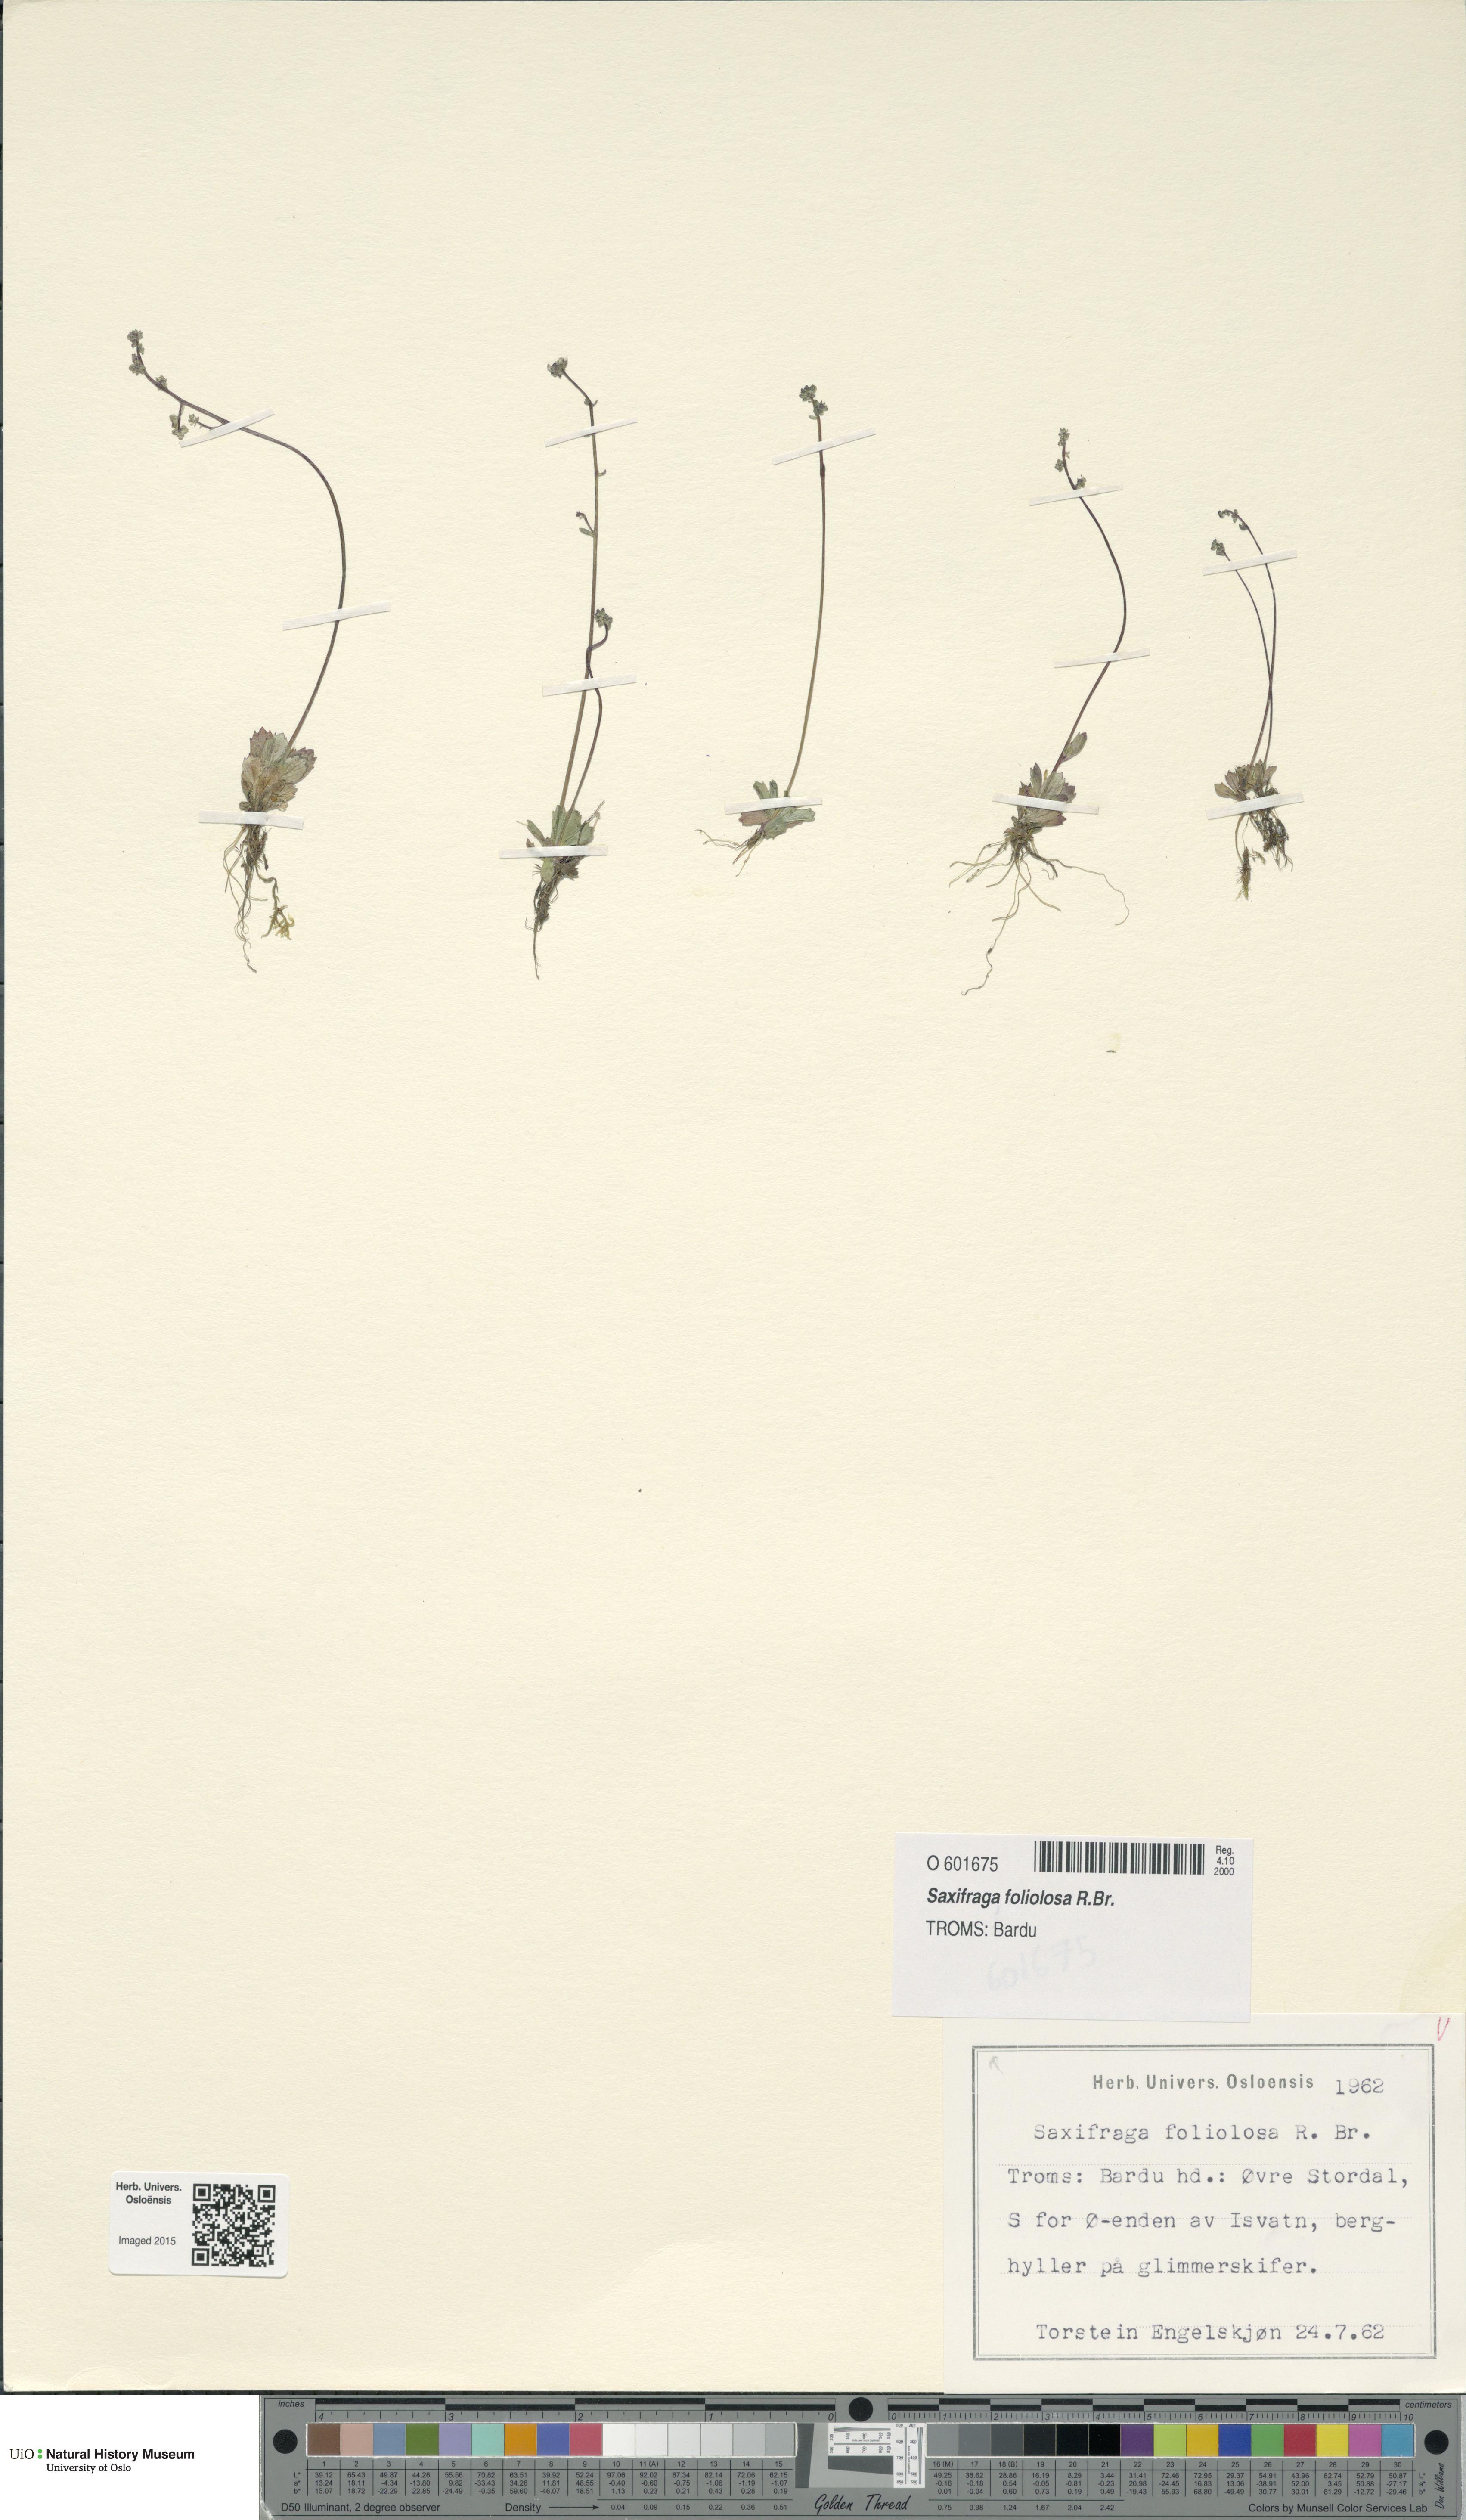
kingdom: Plantae
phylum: Tracheophyta
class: Magnoliopsida
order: Saxifragales
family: Saxifragaceae
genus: Micranthes
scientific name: Micranthes foliolosa
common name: Leafystem saxifrage
